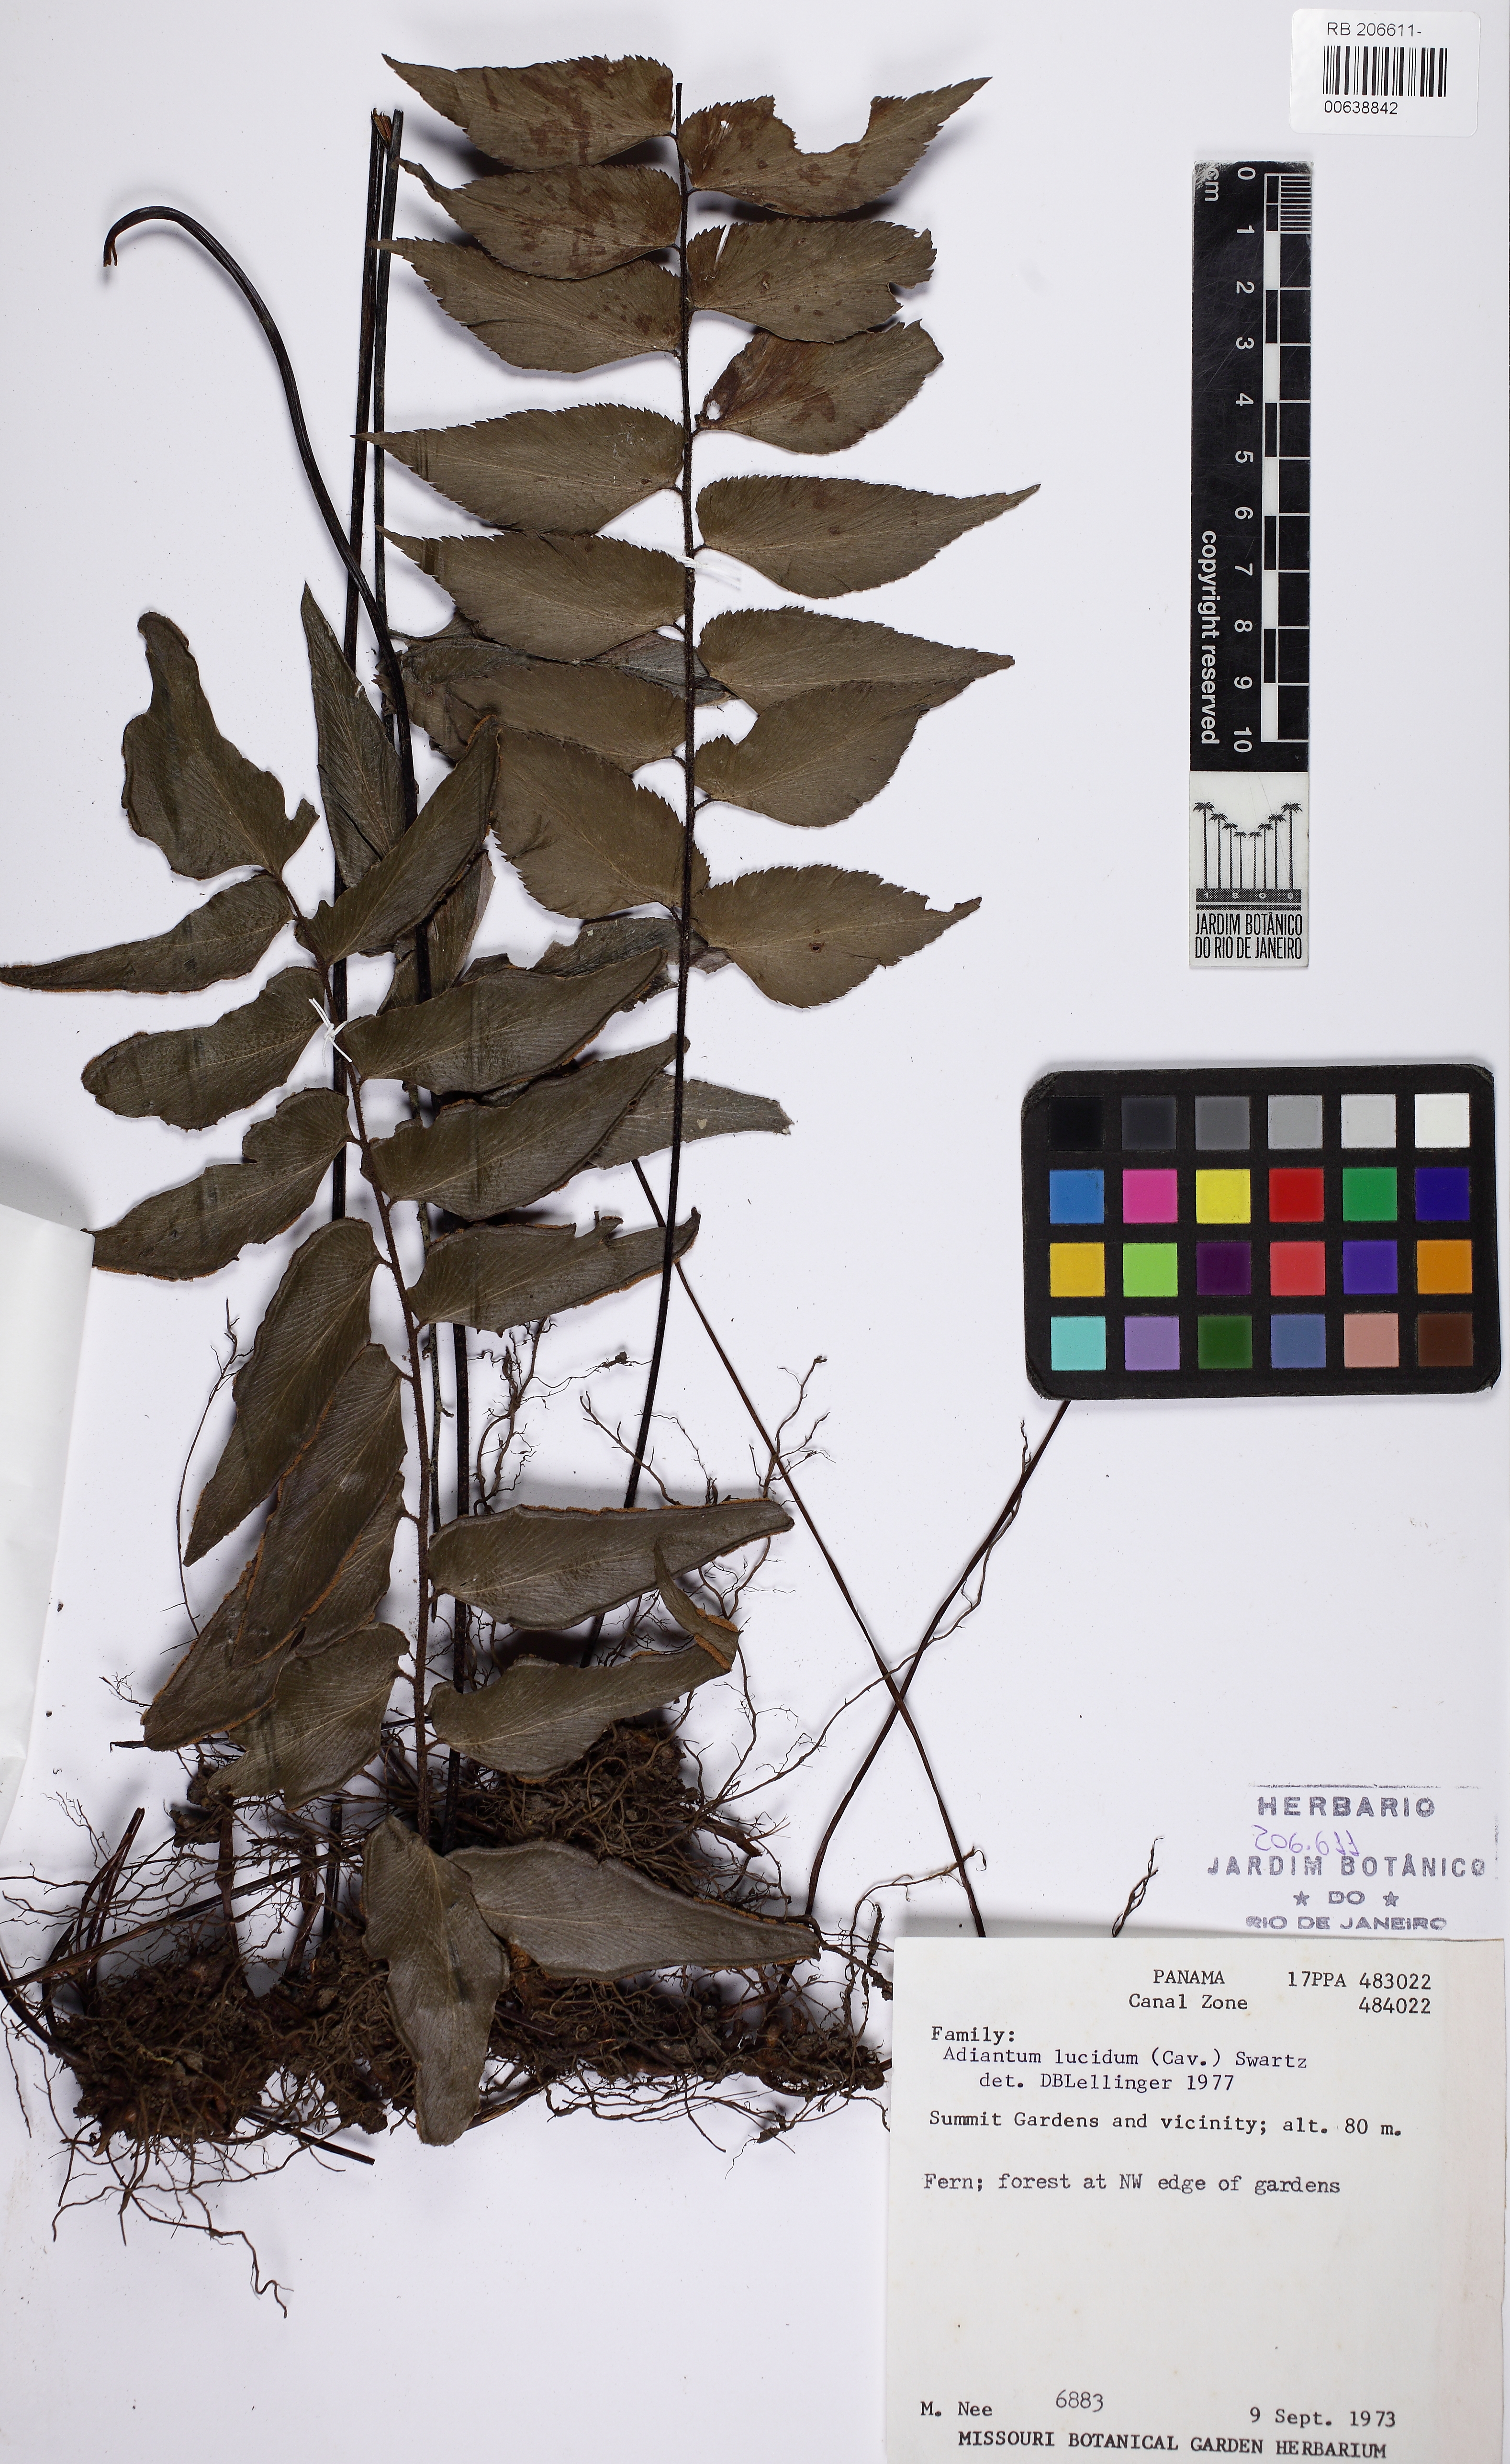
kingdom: Plantae
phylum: Tracheophyta
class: Polypodiopsida
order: Polypodiales
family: Pteridaceae
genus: Adiantum
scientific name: Adiantum lucidum
